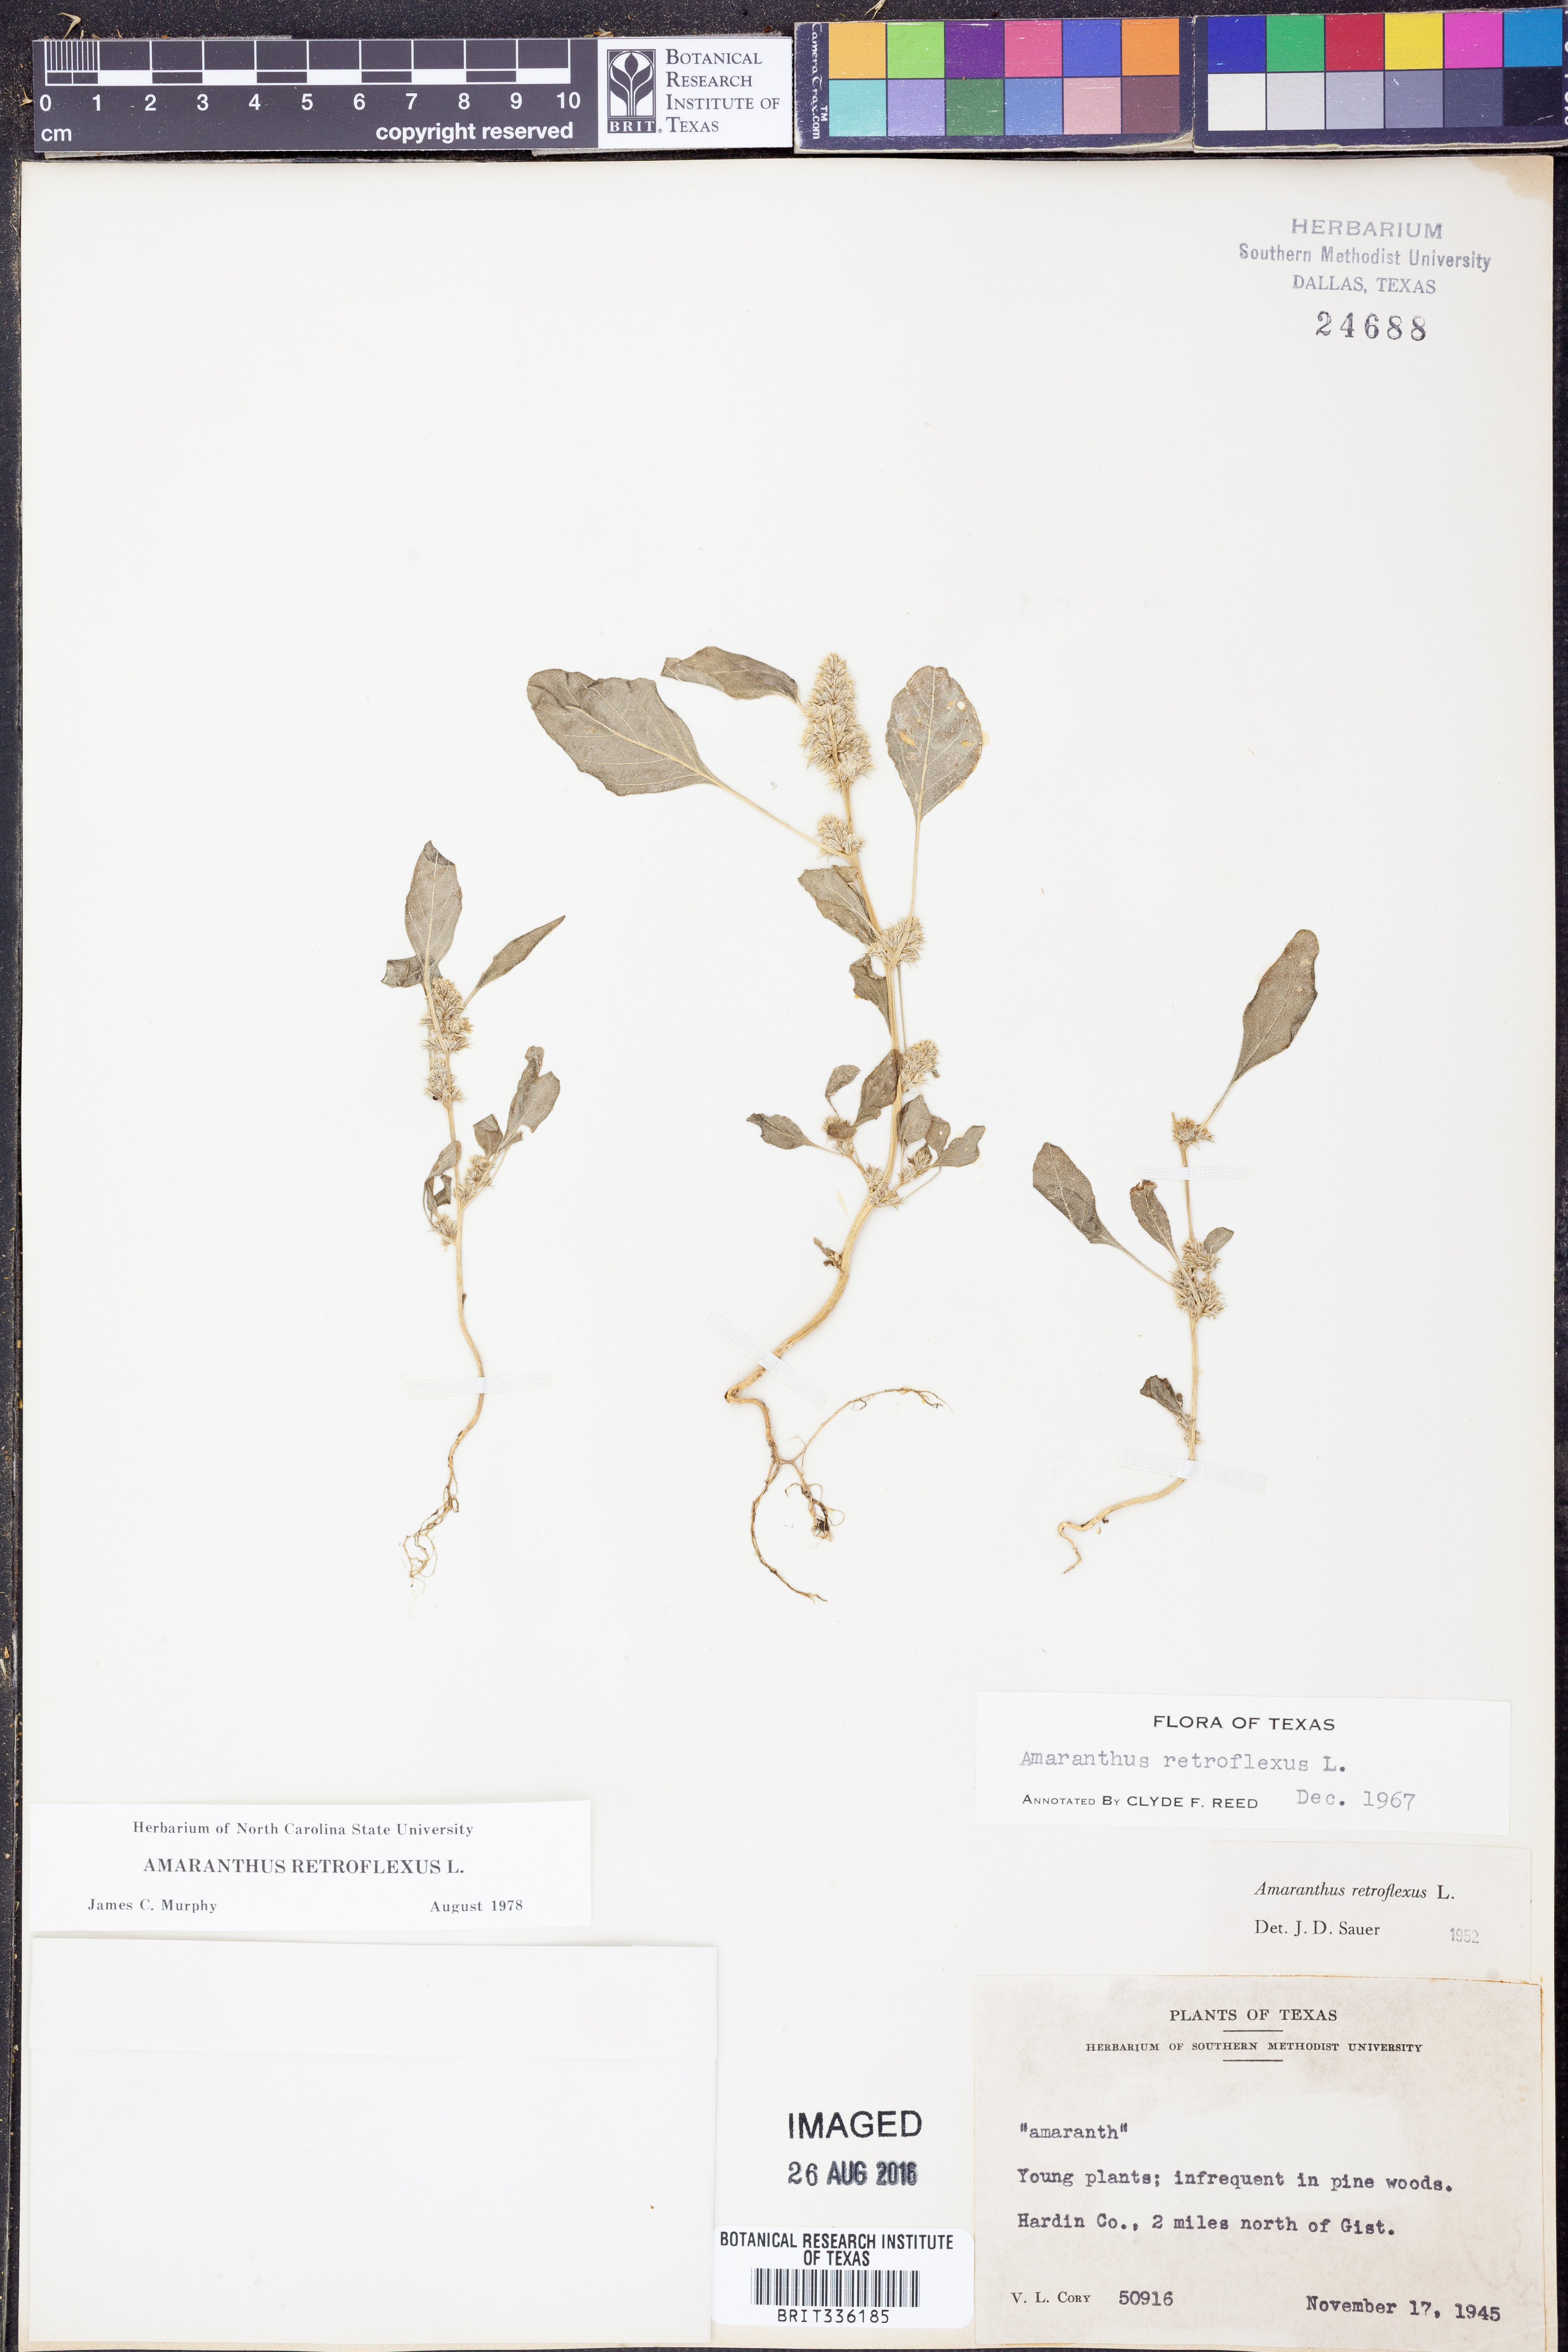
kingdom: Plantae
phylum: Tracheophyta
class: Magnoliopsida
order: Caryophyllales
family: Amaranthaceae
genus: Amaranthus
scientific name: Amaranthus retroflexus
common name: Redroot amaranth
